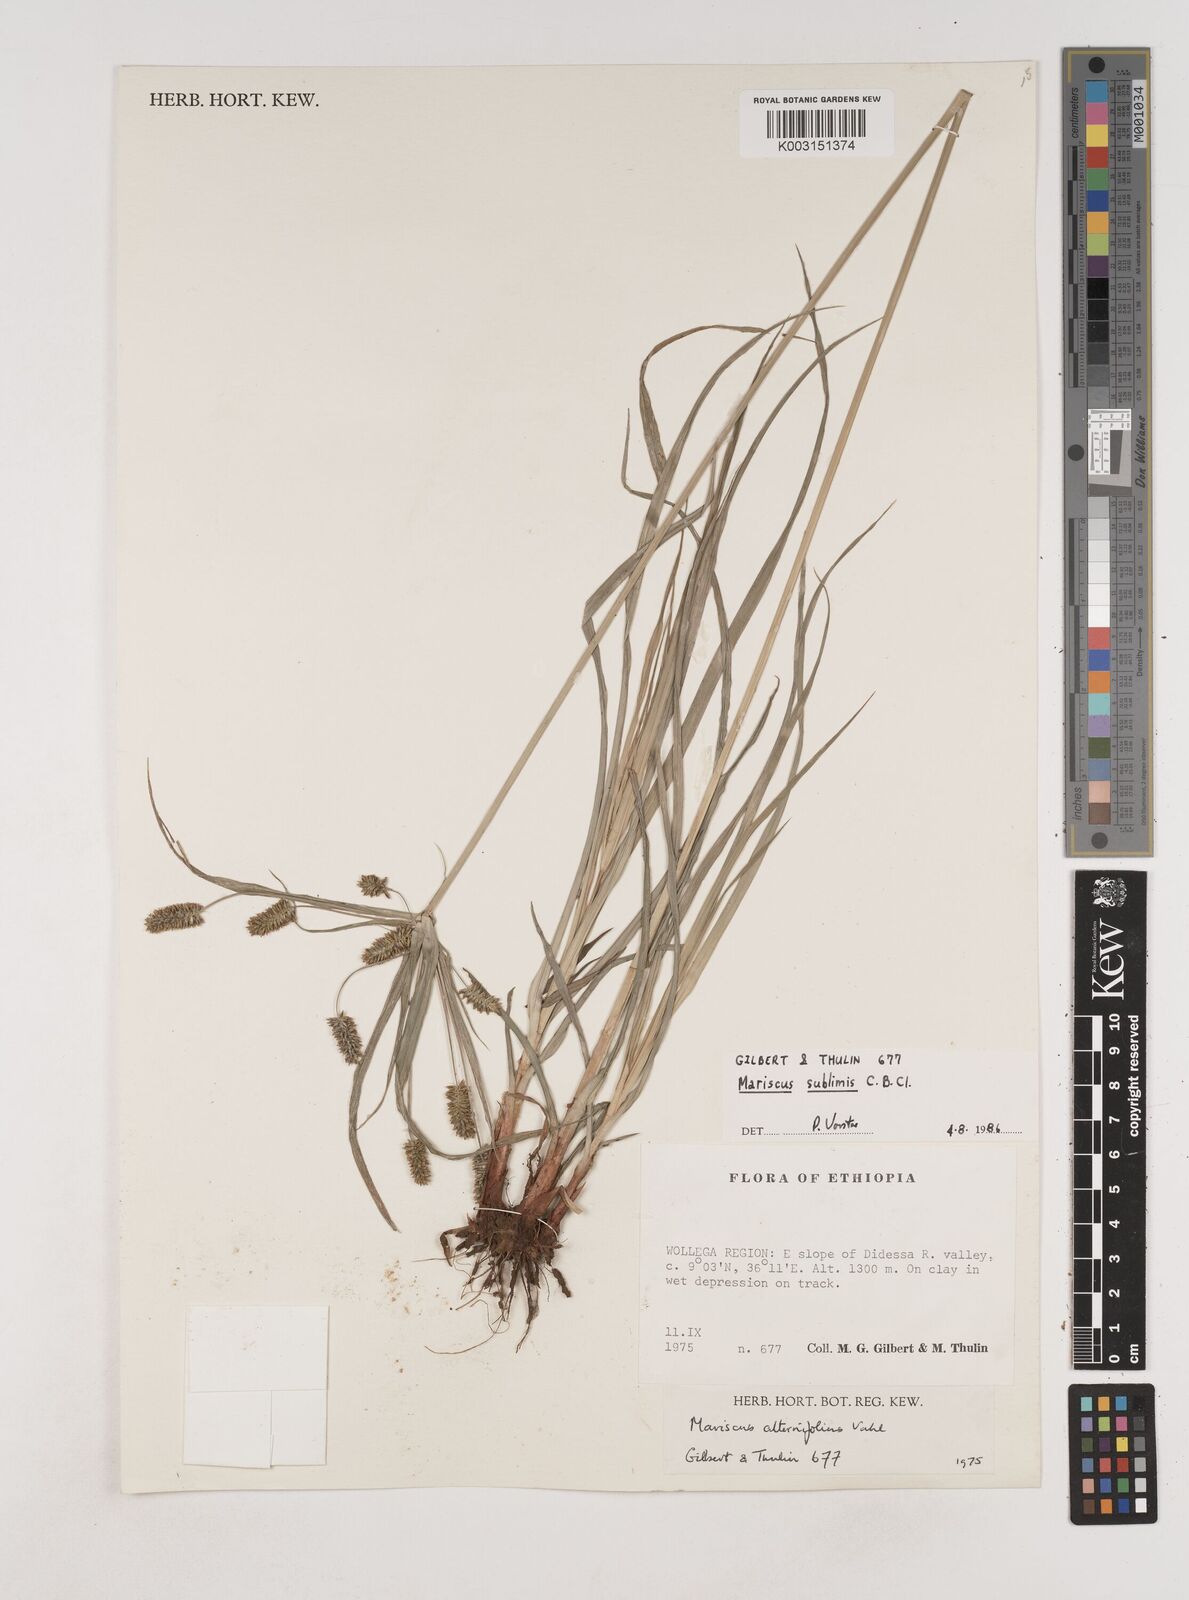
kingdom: Plantae
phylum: Tracheophyta
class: Liliopsida
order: Poales
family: Cyperaceae
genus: Cyperus
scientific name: Cyperus cyperoides
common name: Pacific island flat sedge
